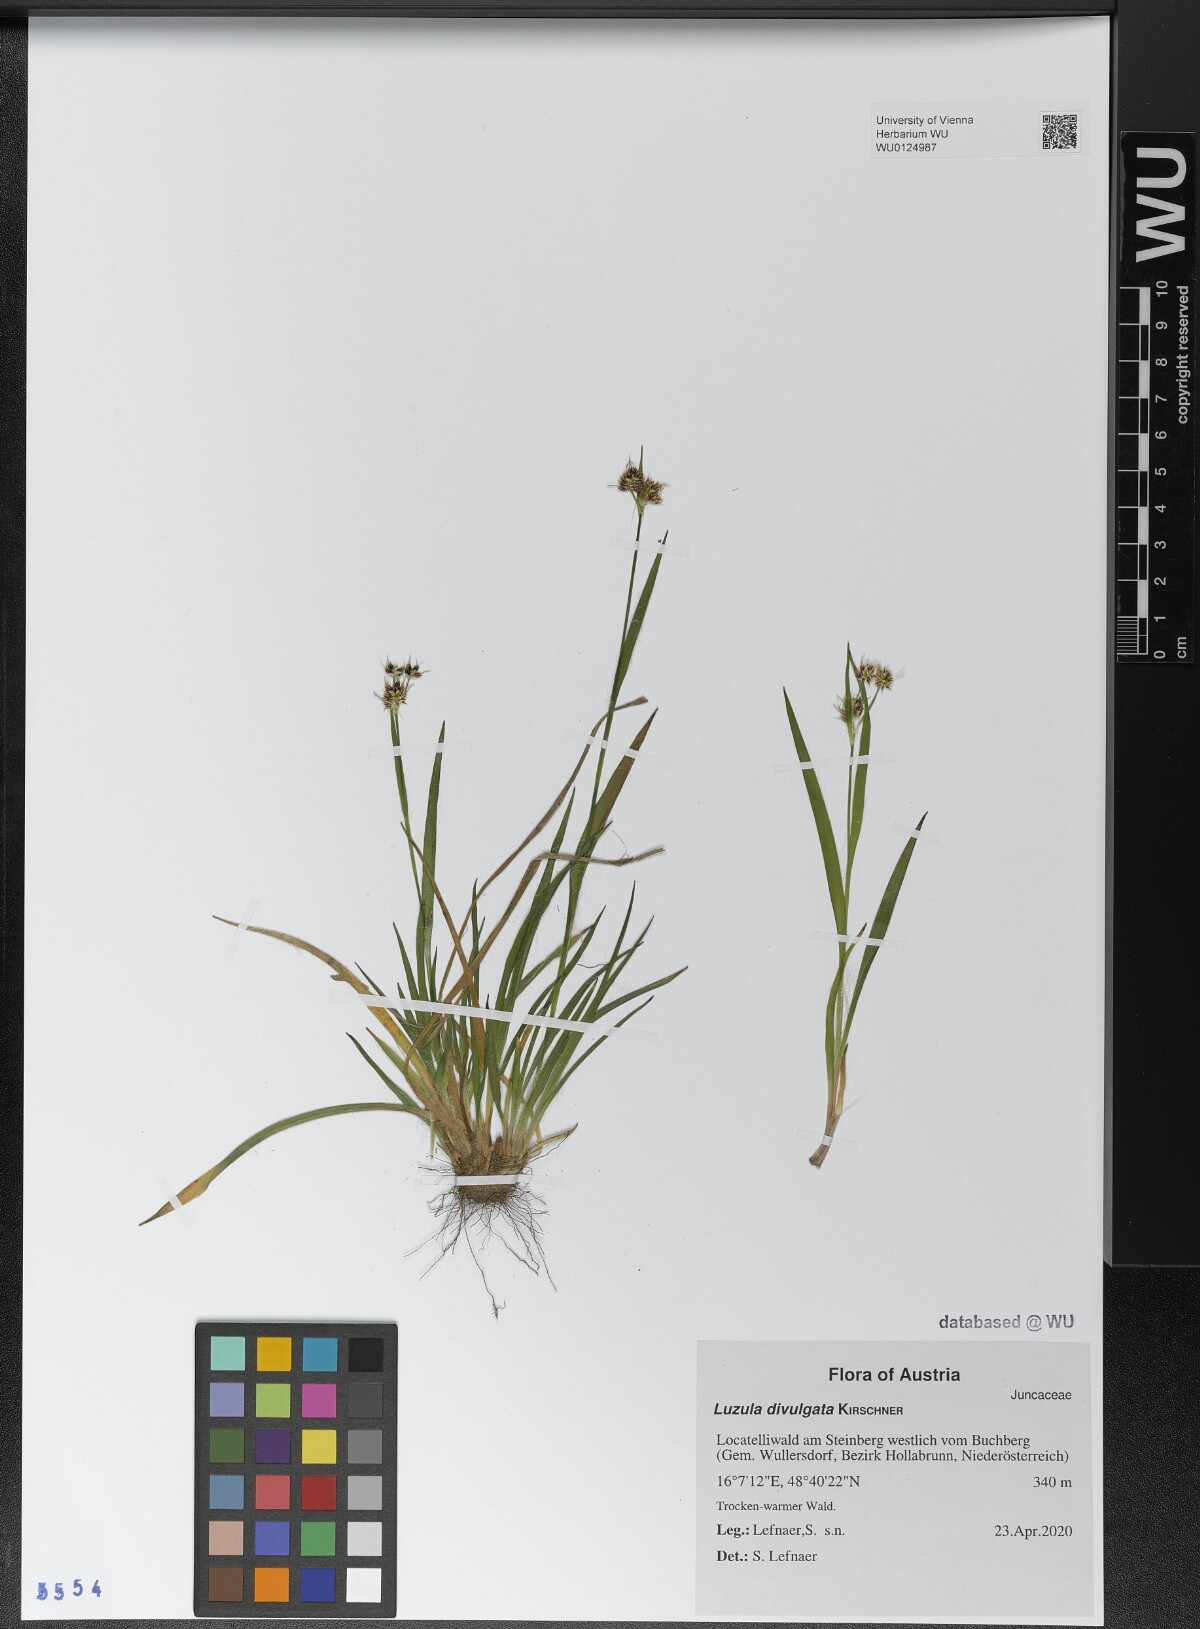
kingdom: Plantae
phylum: Tracheophyta
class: Liliopsida
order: Poales
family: Juncaceae
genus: Luzula
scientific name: Luzula divulgata
